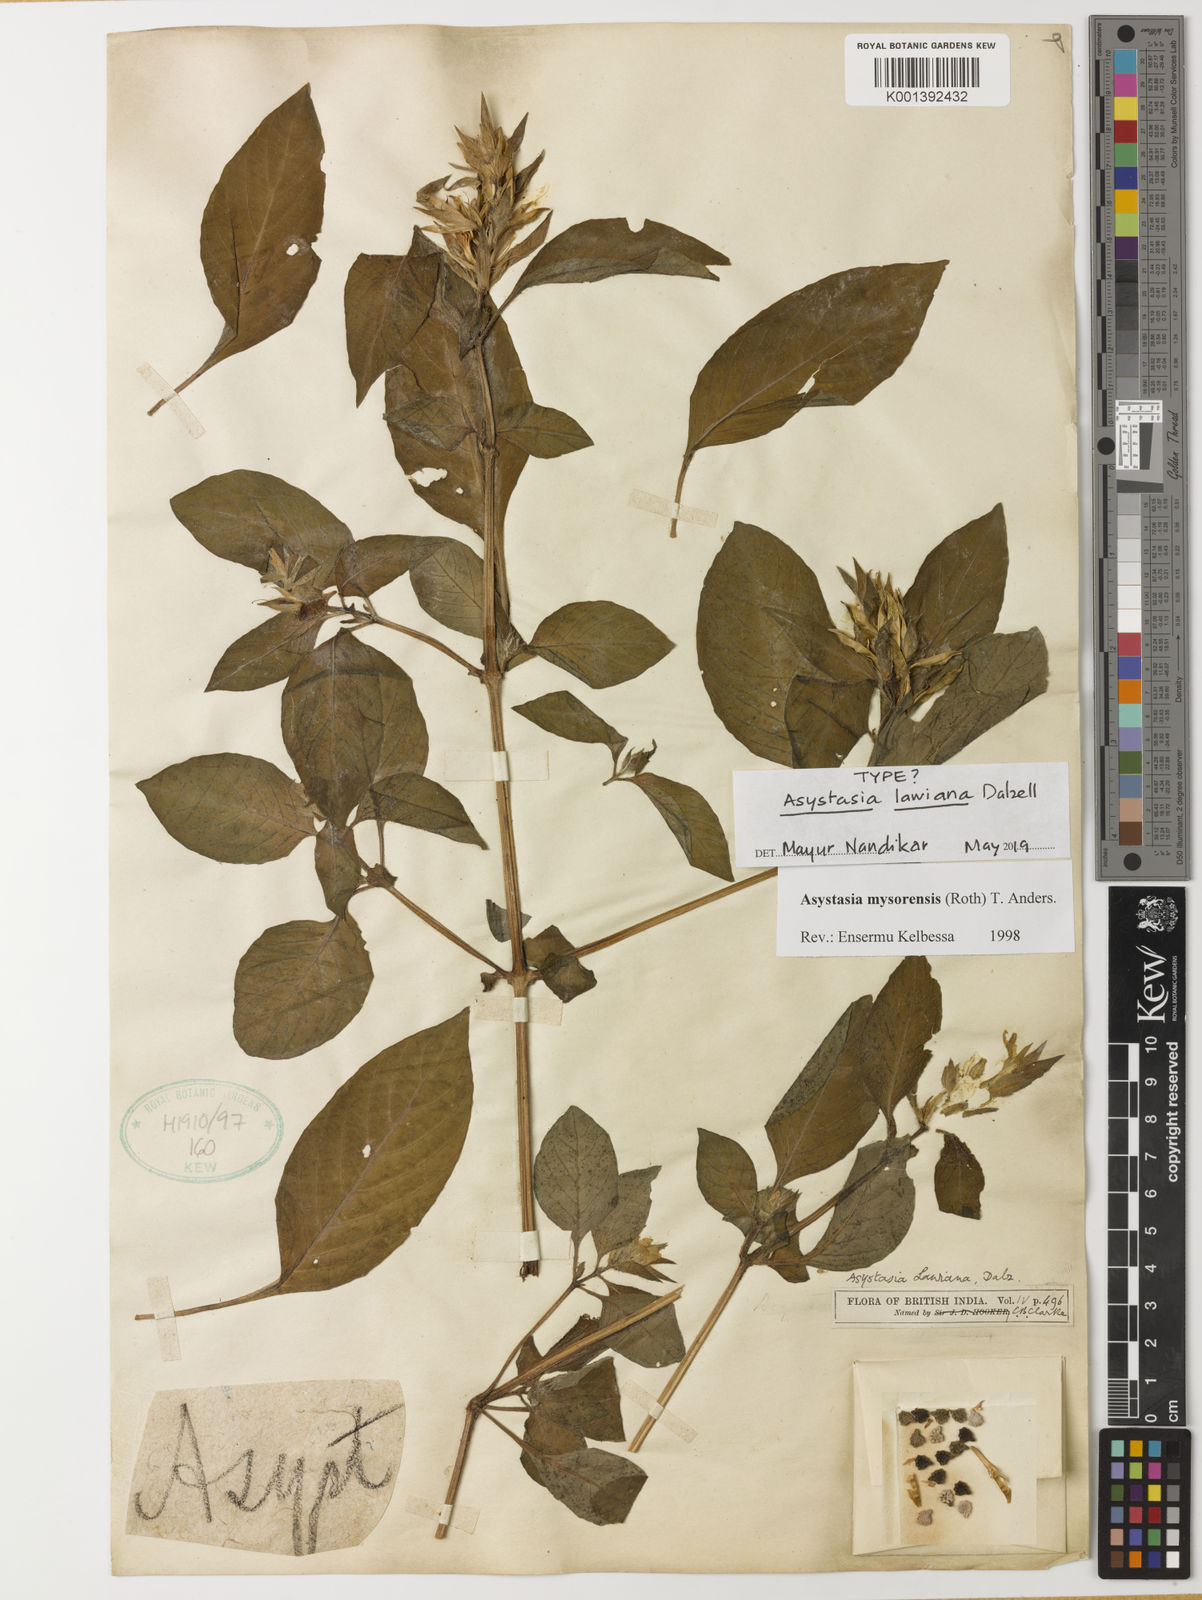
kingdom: Plantae
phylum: Tracheophyta
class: Magnoliopsida
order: Lamiales
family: Acanthaceae
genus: Asystasia
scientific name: Asystasia mysorensis
